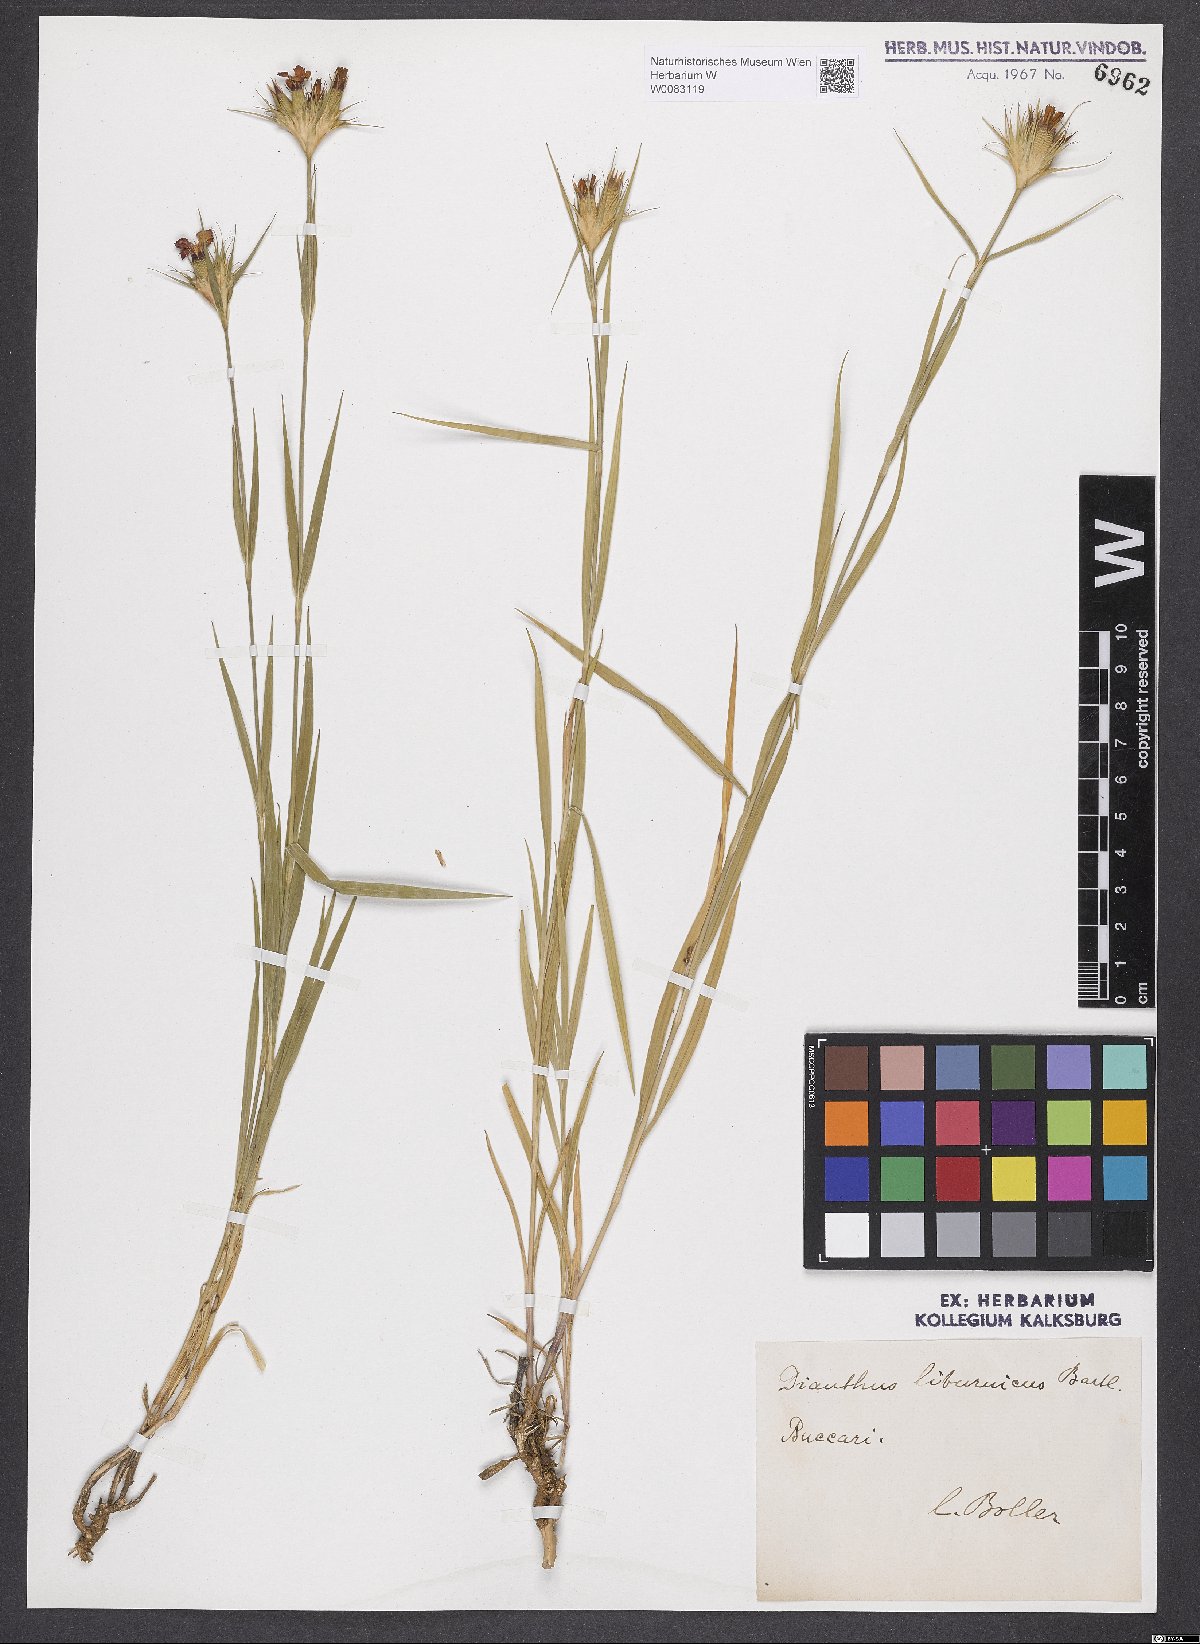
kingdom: Plantae
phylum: Tracheophyta
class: Magnoliopsida
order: Caryophyllales
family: Caryophyllaceae
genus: Dianthus
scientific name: Dianthus balbisii
